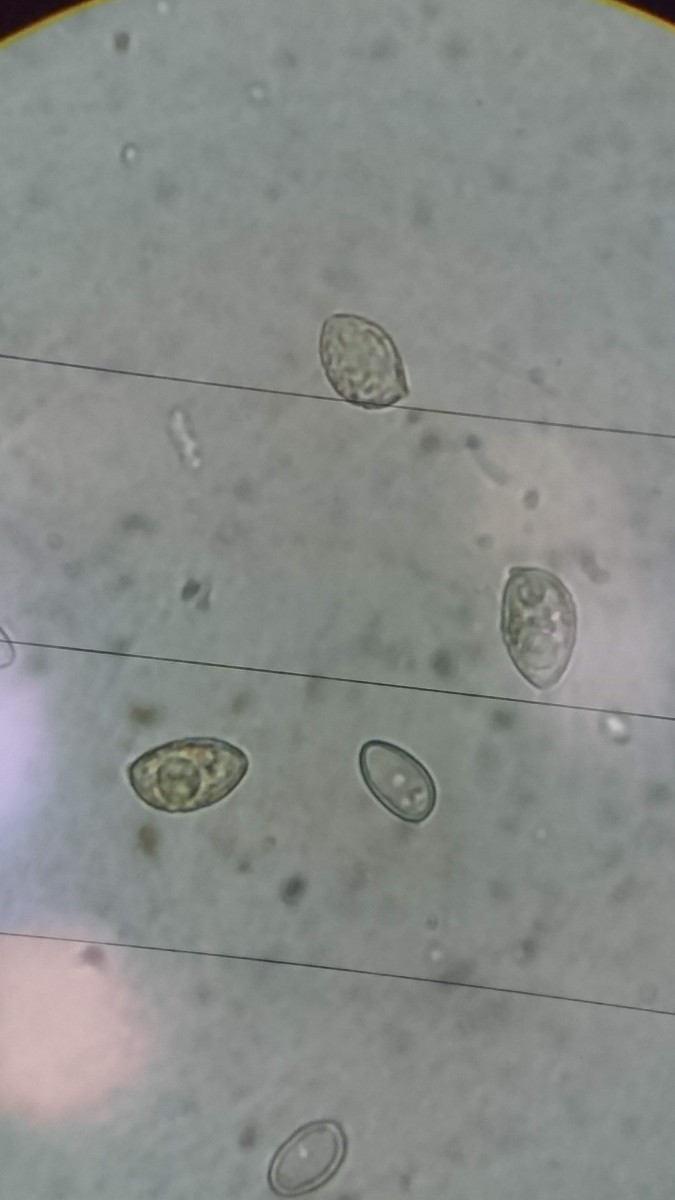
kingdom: Fungi
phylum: Basidiomycota
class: Agaricomycetes
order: Agaricales
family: Hymenogastraceae
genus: Galerina
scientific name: Galerina
